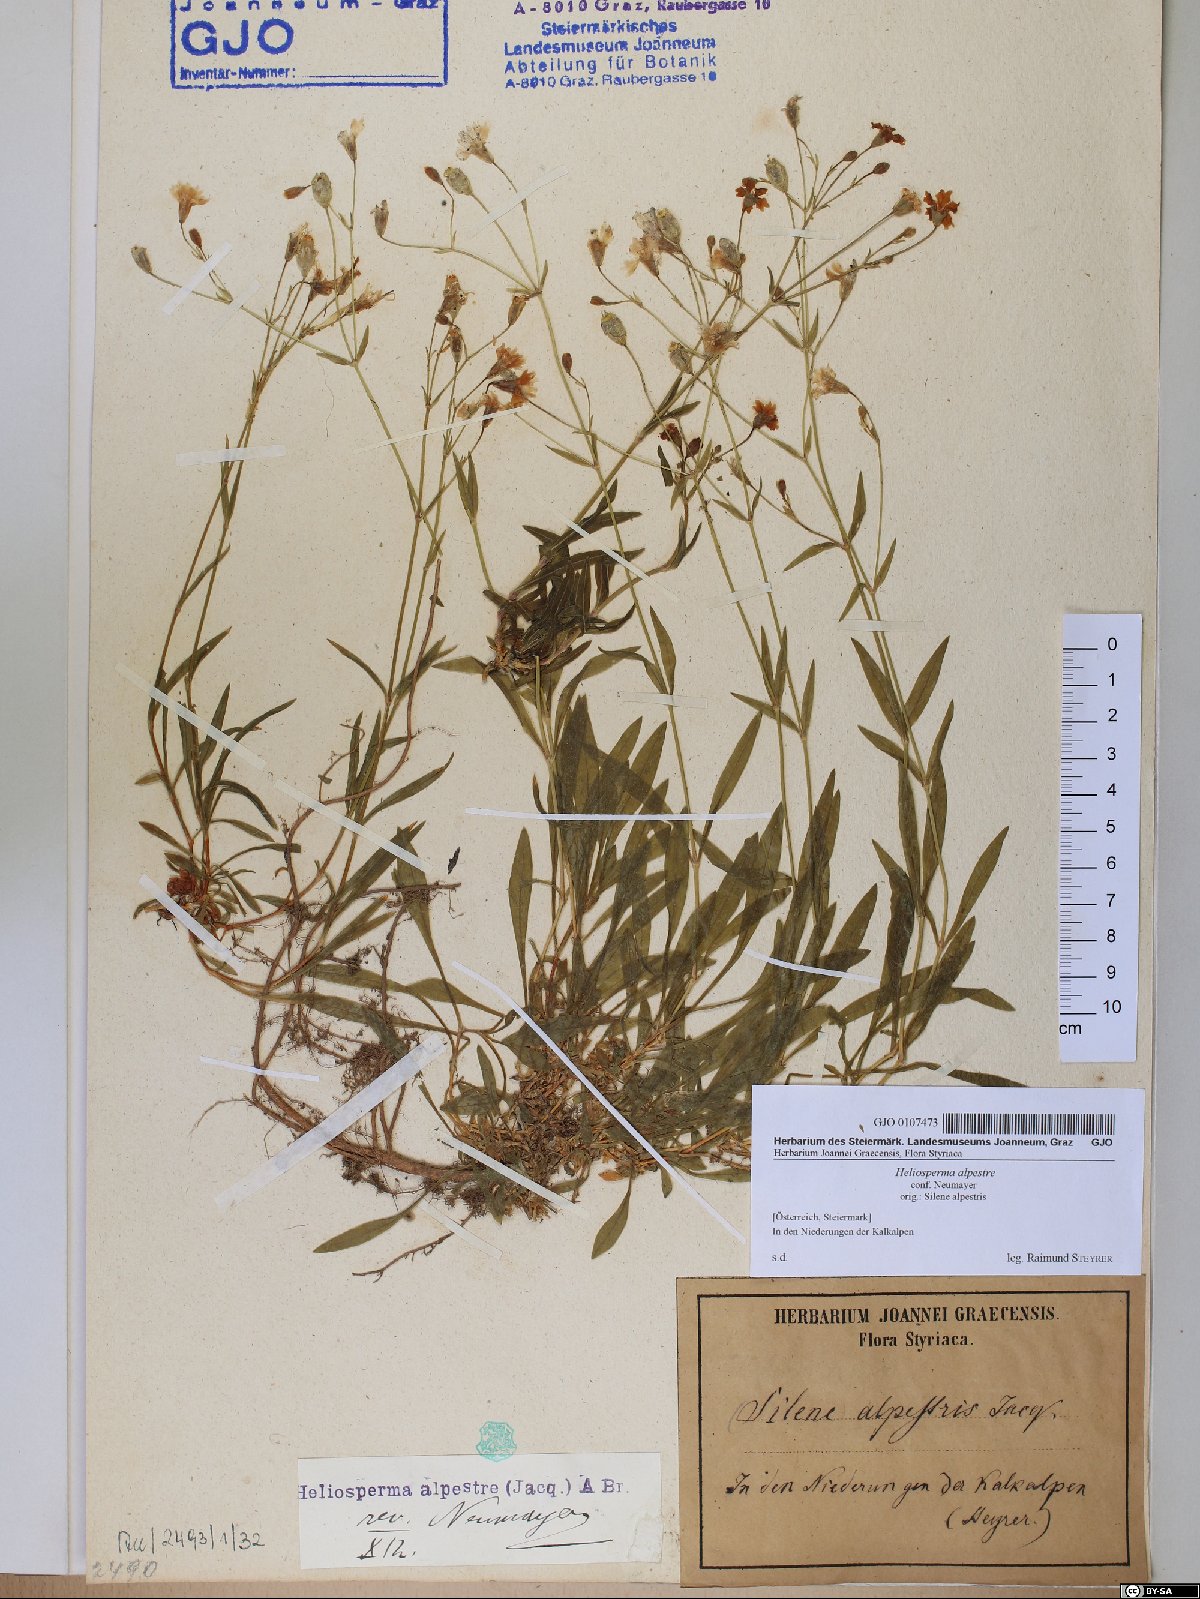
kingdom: Plantae
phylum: Tracheophyta
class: Magnoliopsida
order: Caryophyllales
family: Caryophyllaceae
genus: Heliosperma
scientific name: Heliosperma alpestre
